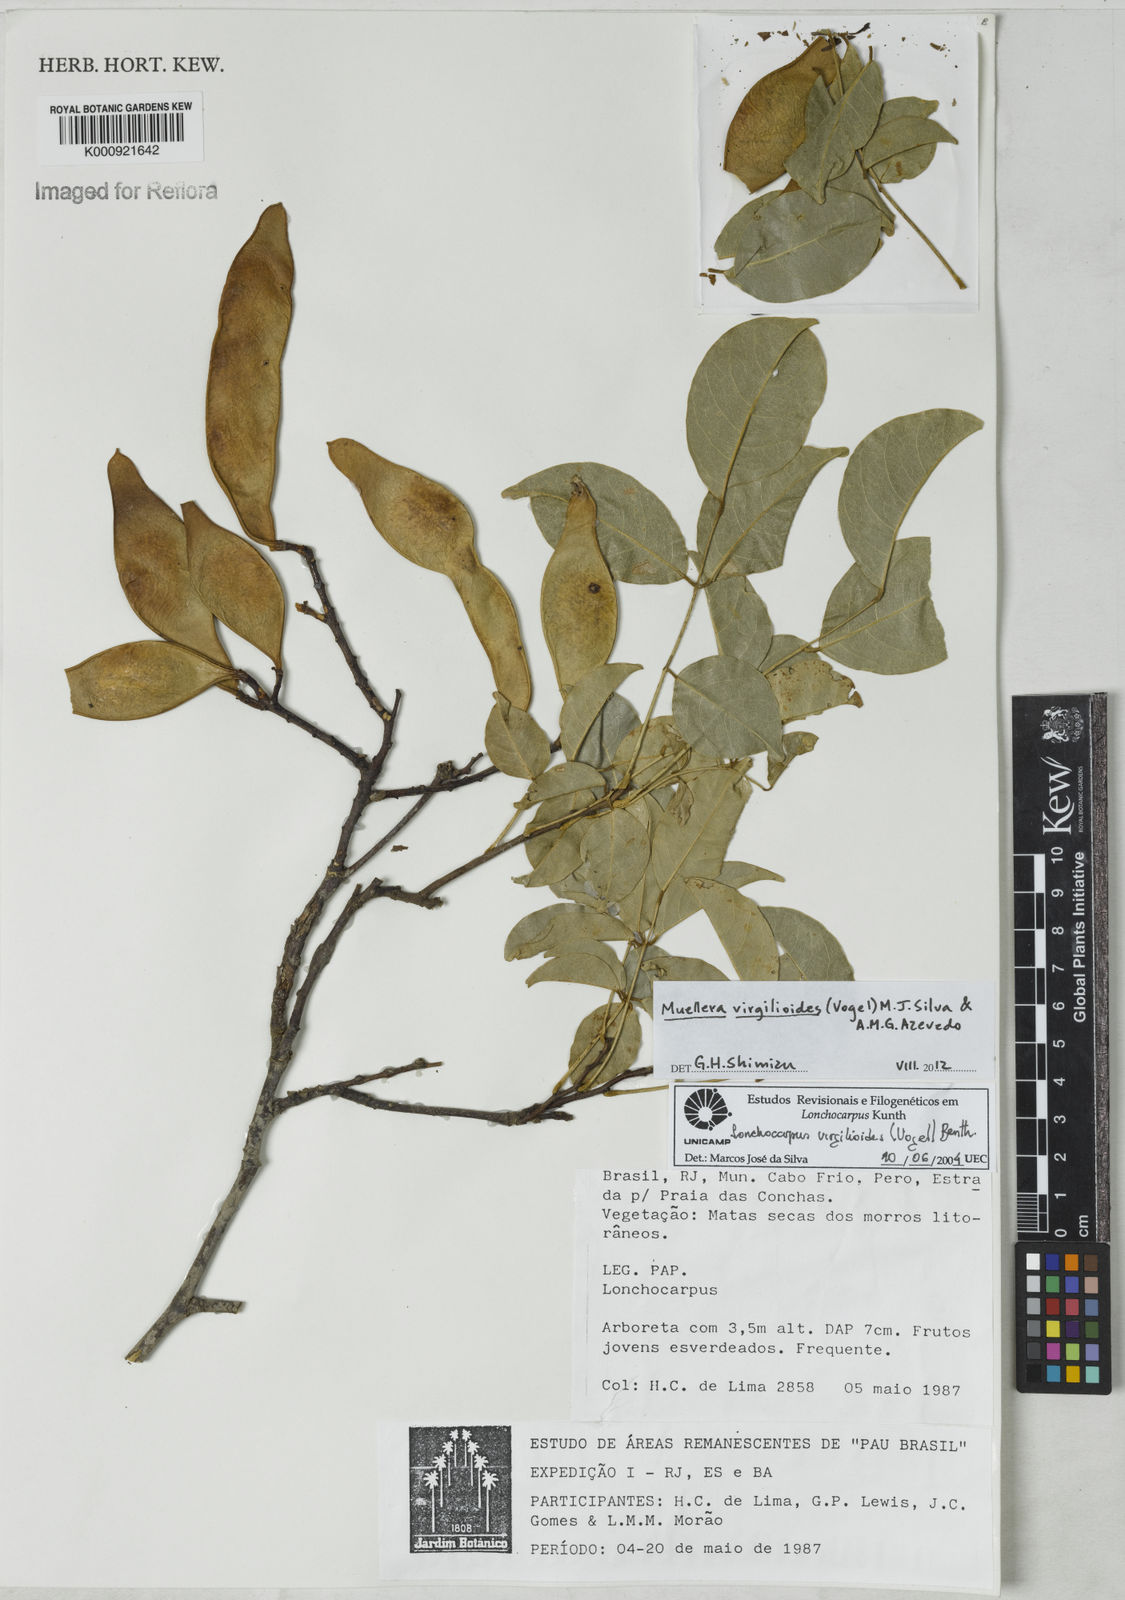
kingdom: Plantae
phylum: Tracheophyta
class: Magnoliopsida
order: Fabales
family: Fabaceae
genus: Muellera
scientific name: Muellera virgilioides
